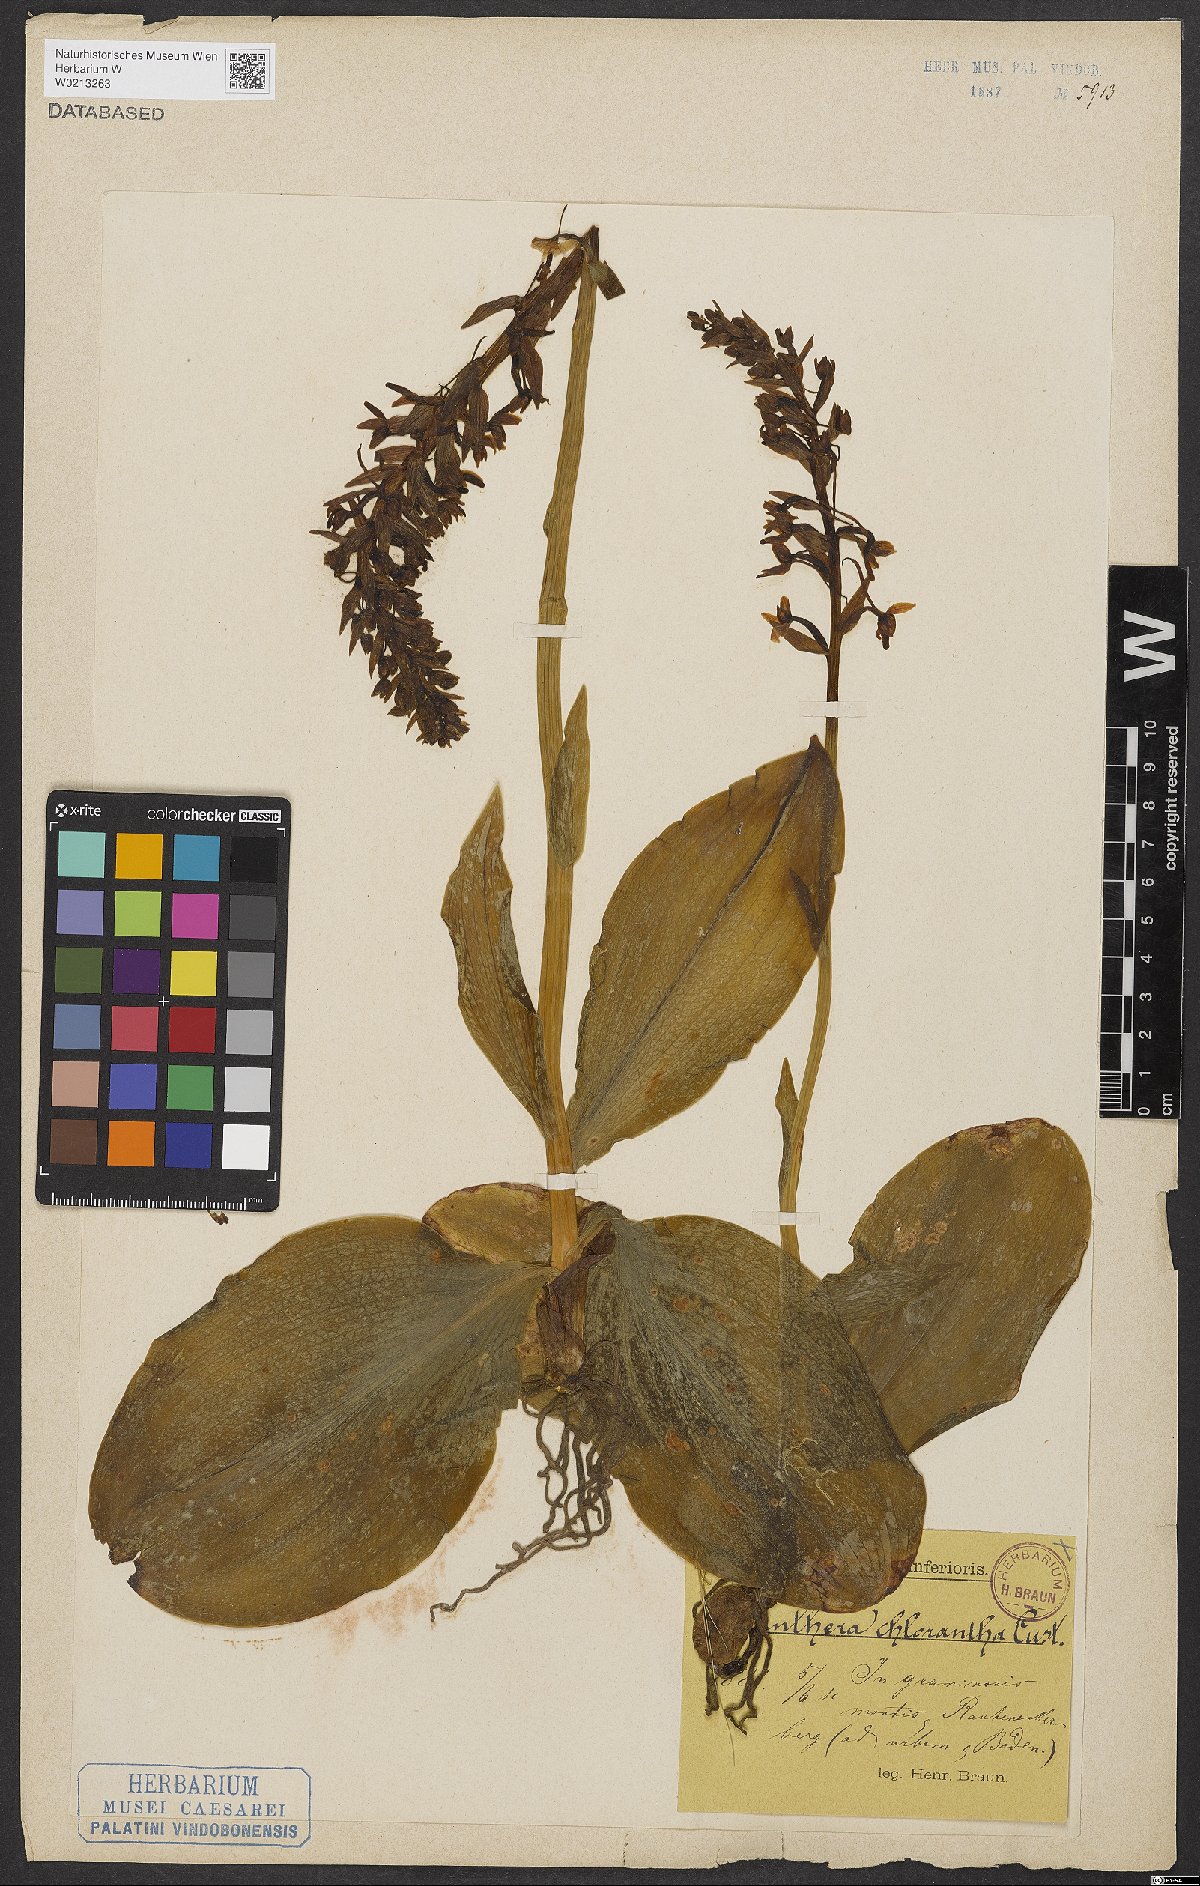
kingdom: Plantae
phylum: Tracheophyta
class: Liliopsida
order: Asparagales
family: Orchidaceae
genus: Platanthera
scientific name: Platanthera chlorantha
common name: Greater butterfly-orchid
